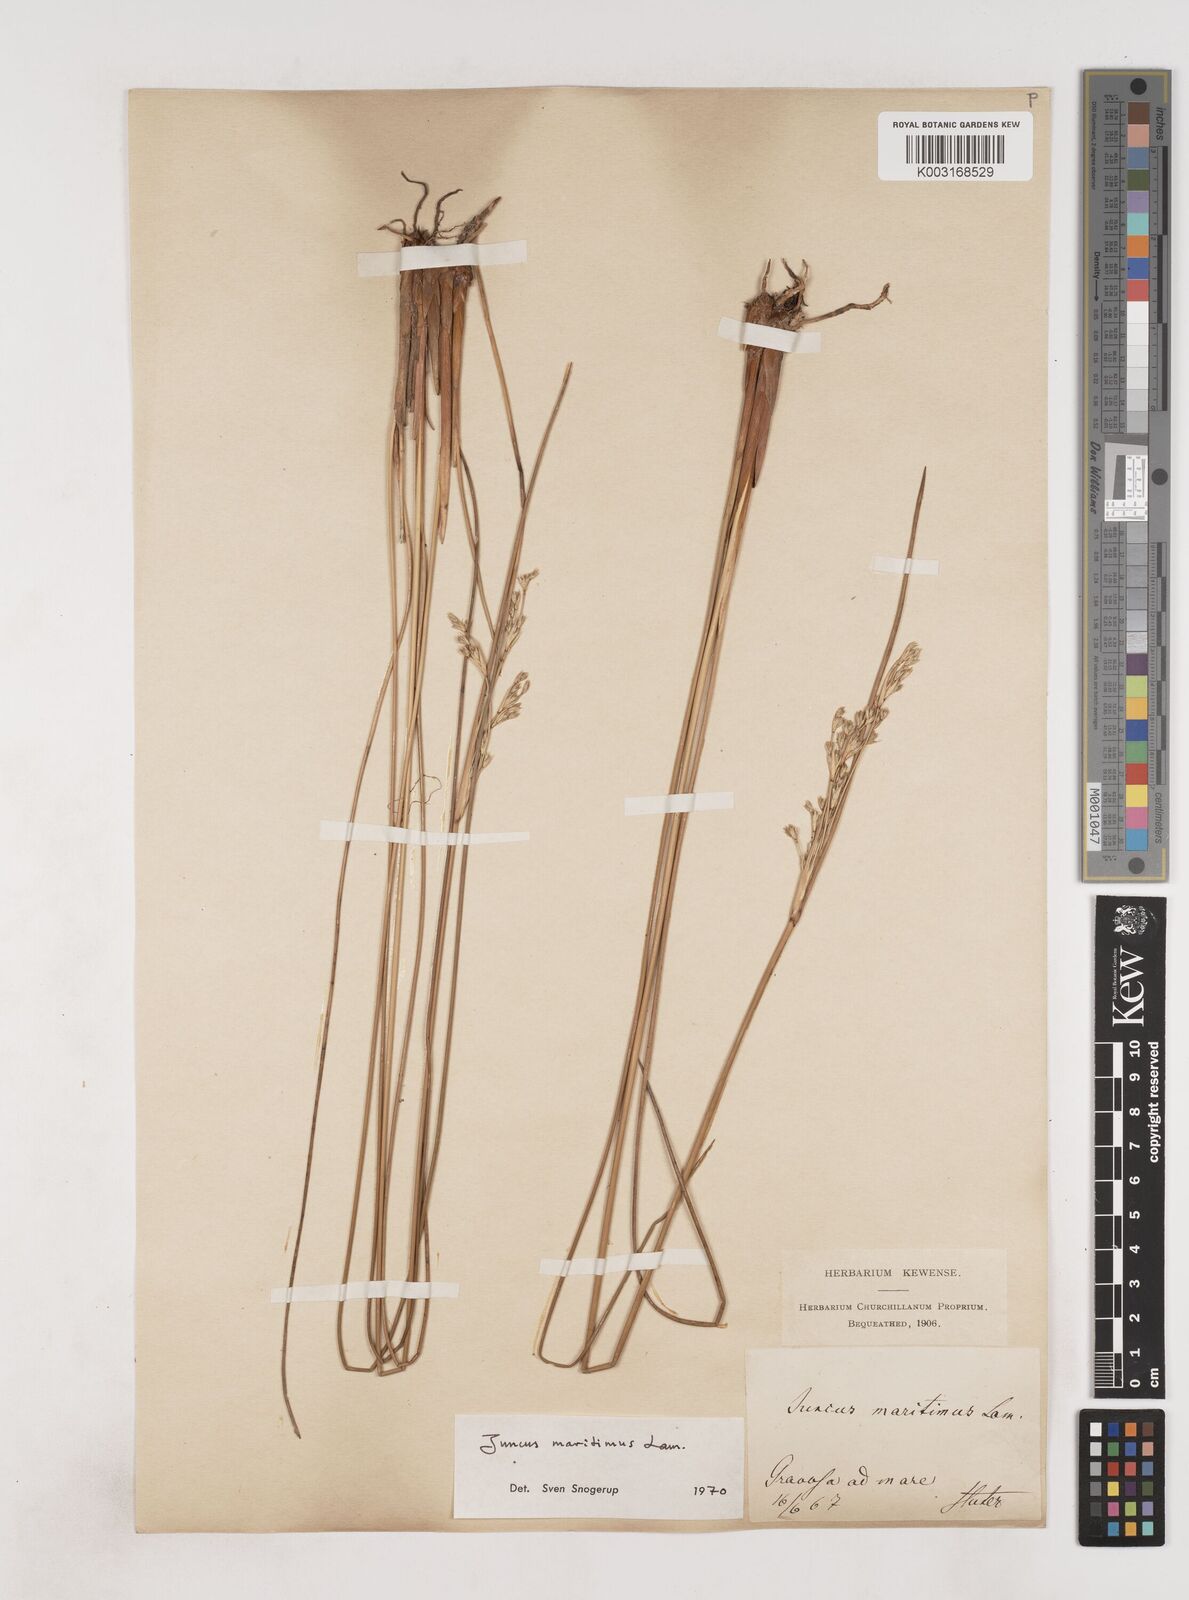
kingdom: Plantae
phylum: Tracheophyta
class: Liliopsida
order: Poales
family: Juncaceae
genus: Juncus
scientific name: Juncus maritimus
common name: Sea rush
